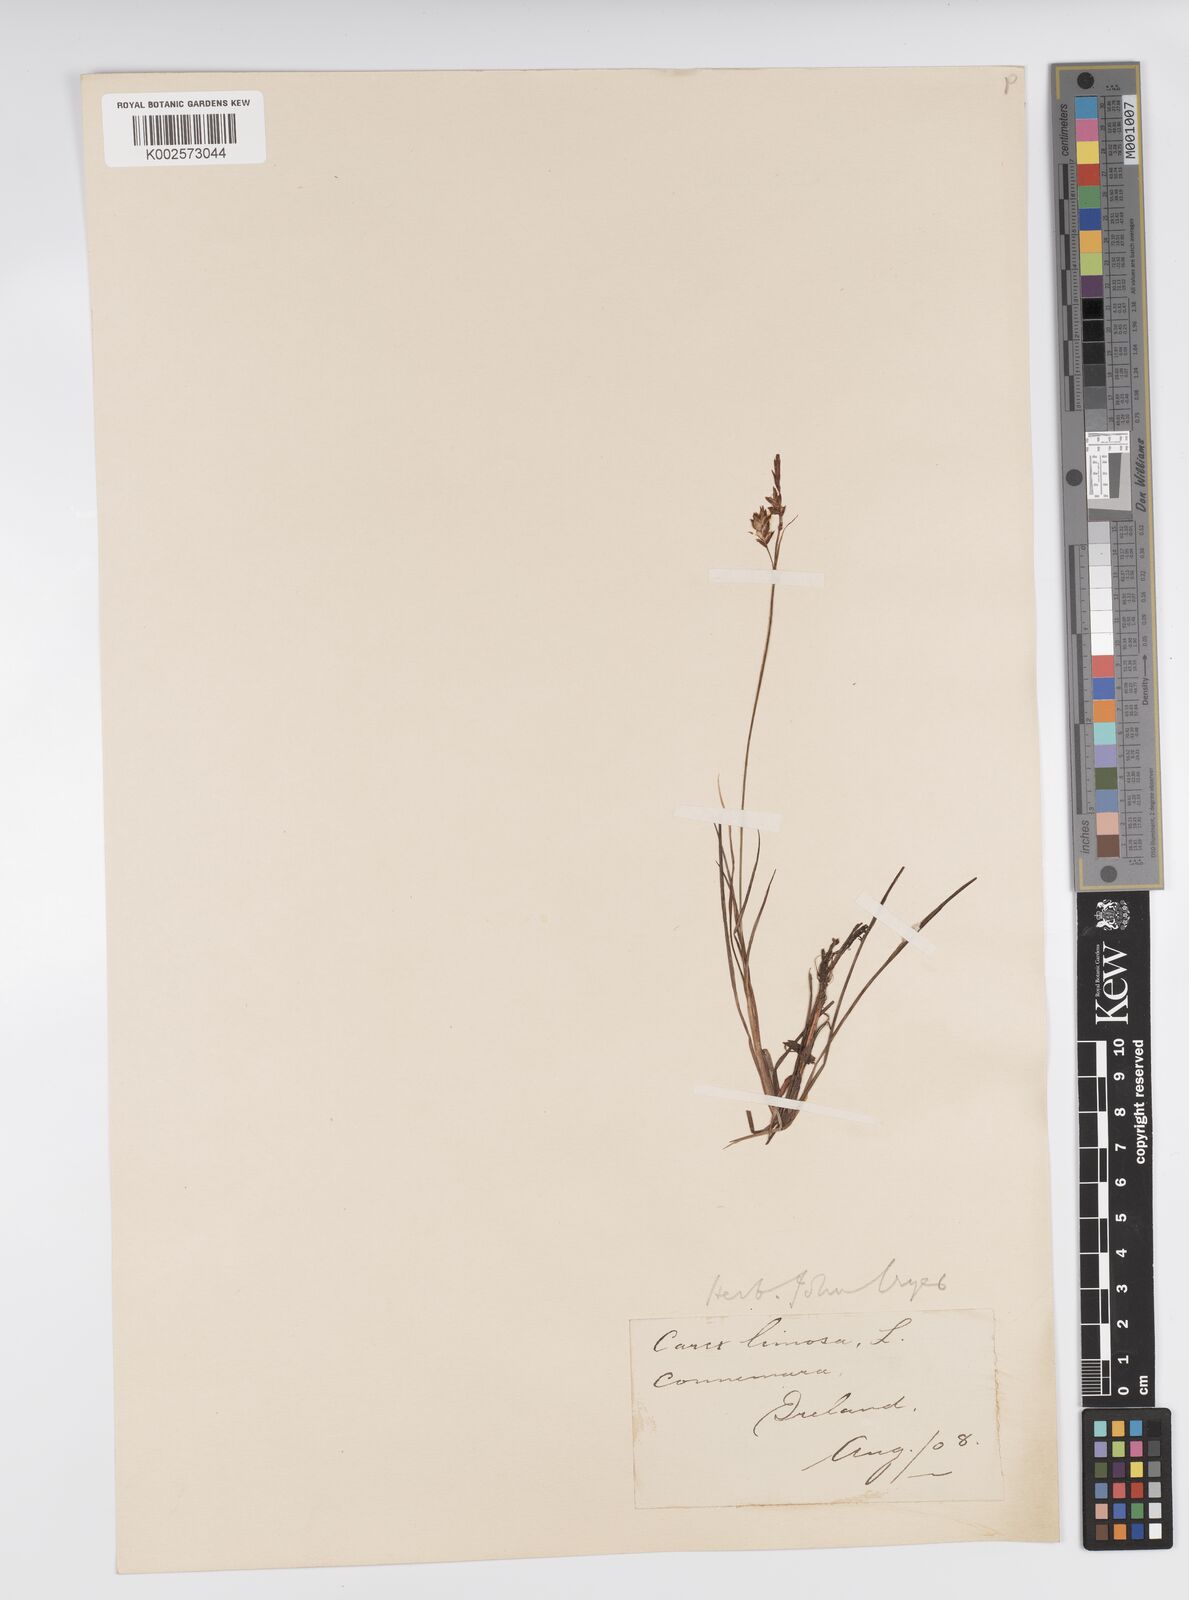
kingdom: Plantae
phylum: Tracheophyta
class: Liliopsida
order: Poales
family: Cyperaceae
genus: Carex
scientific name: Carex limosa
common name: Bog sedge
